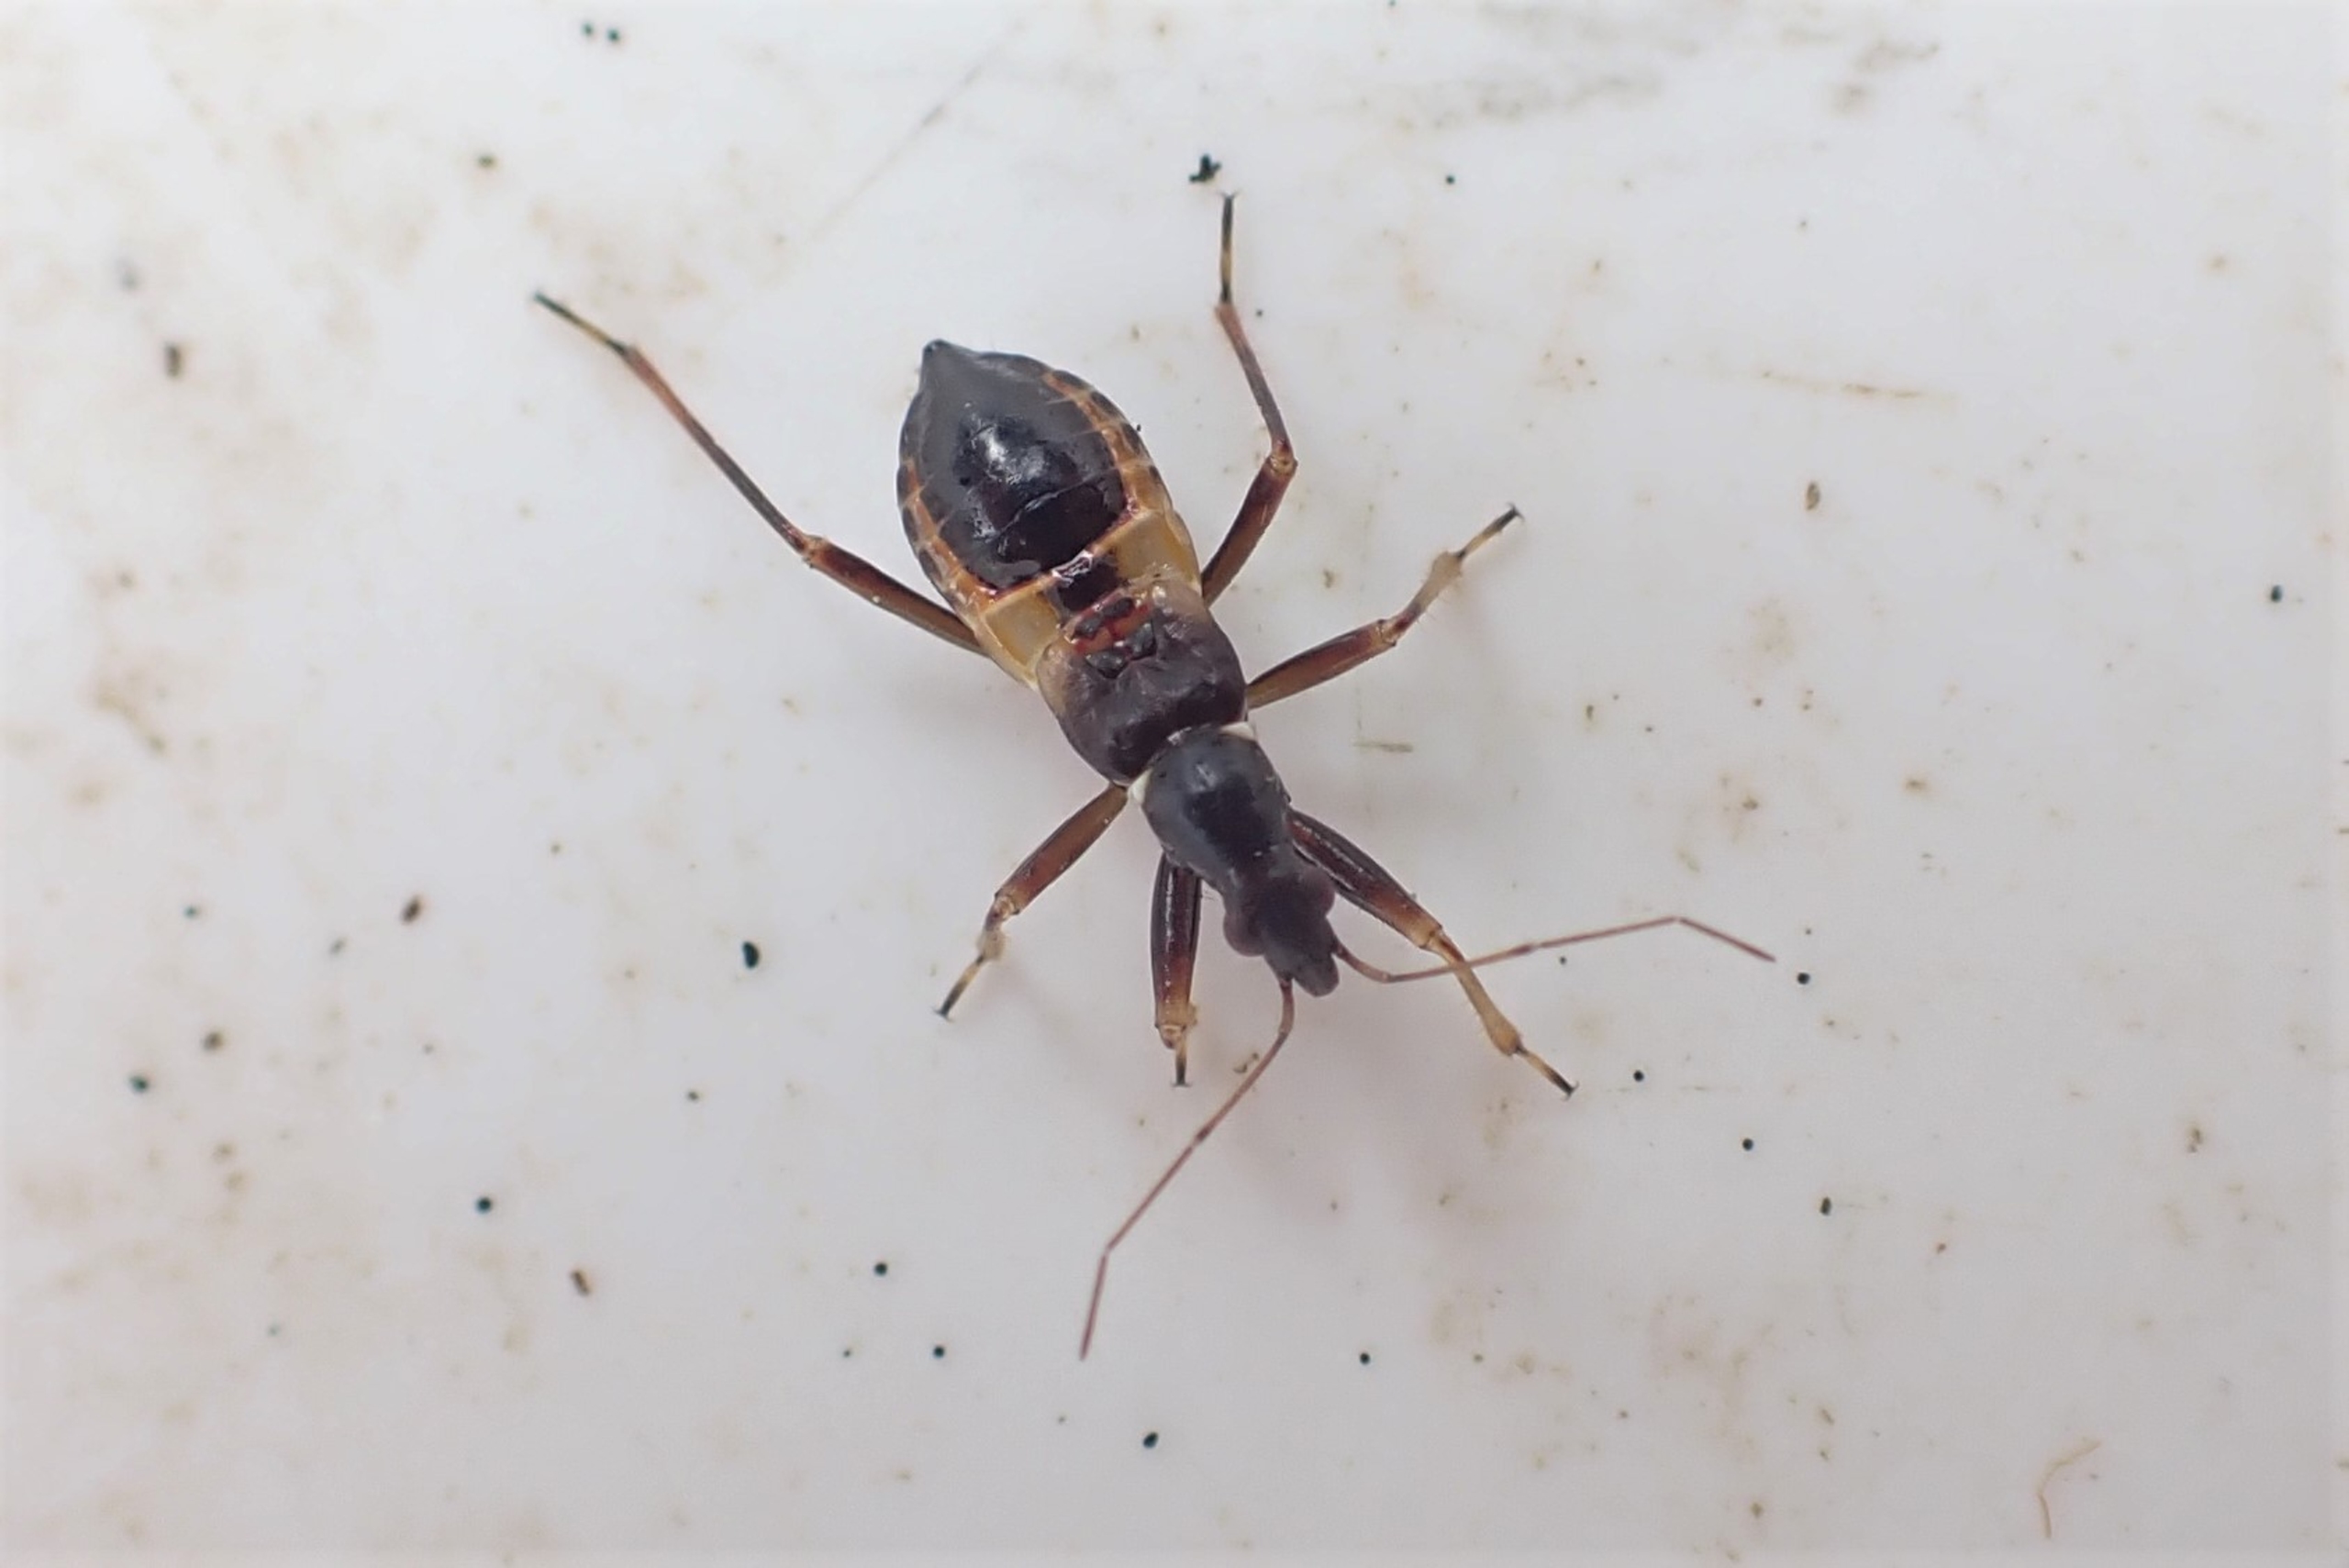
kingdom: Animalia
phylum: Arthropoda
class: Insecta
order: Hemiptera
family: Nabidae
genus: Himacerus
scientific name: Himacerus mirmicoides
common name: Myrenymfetæge
